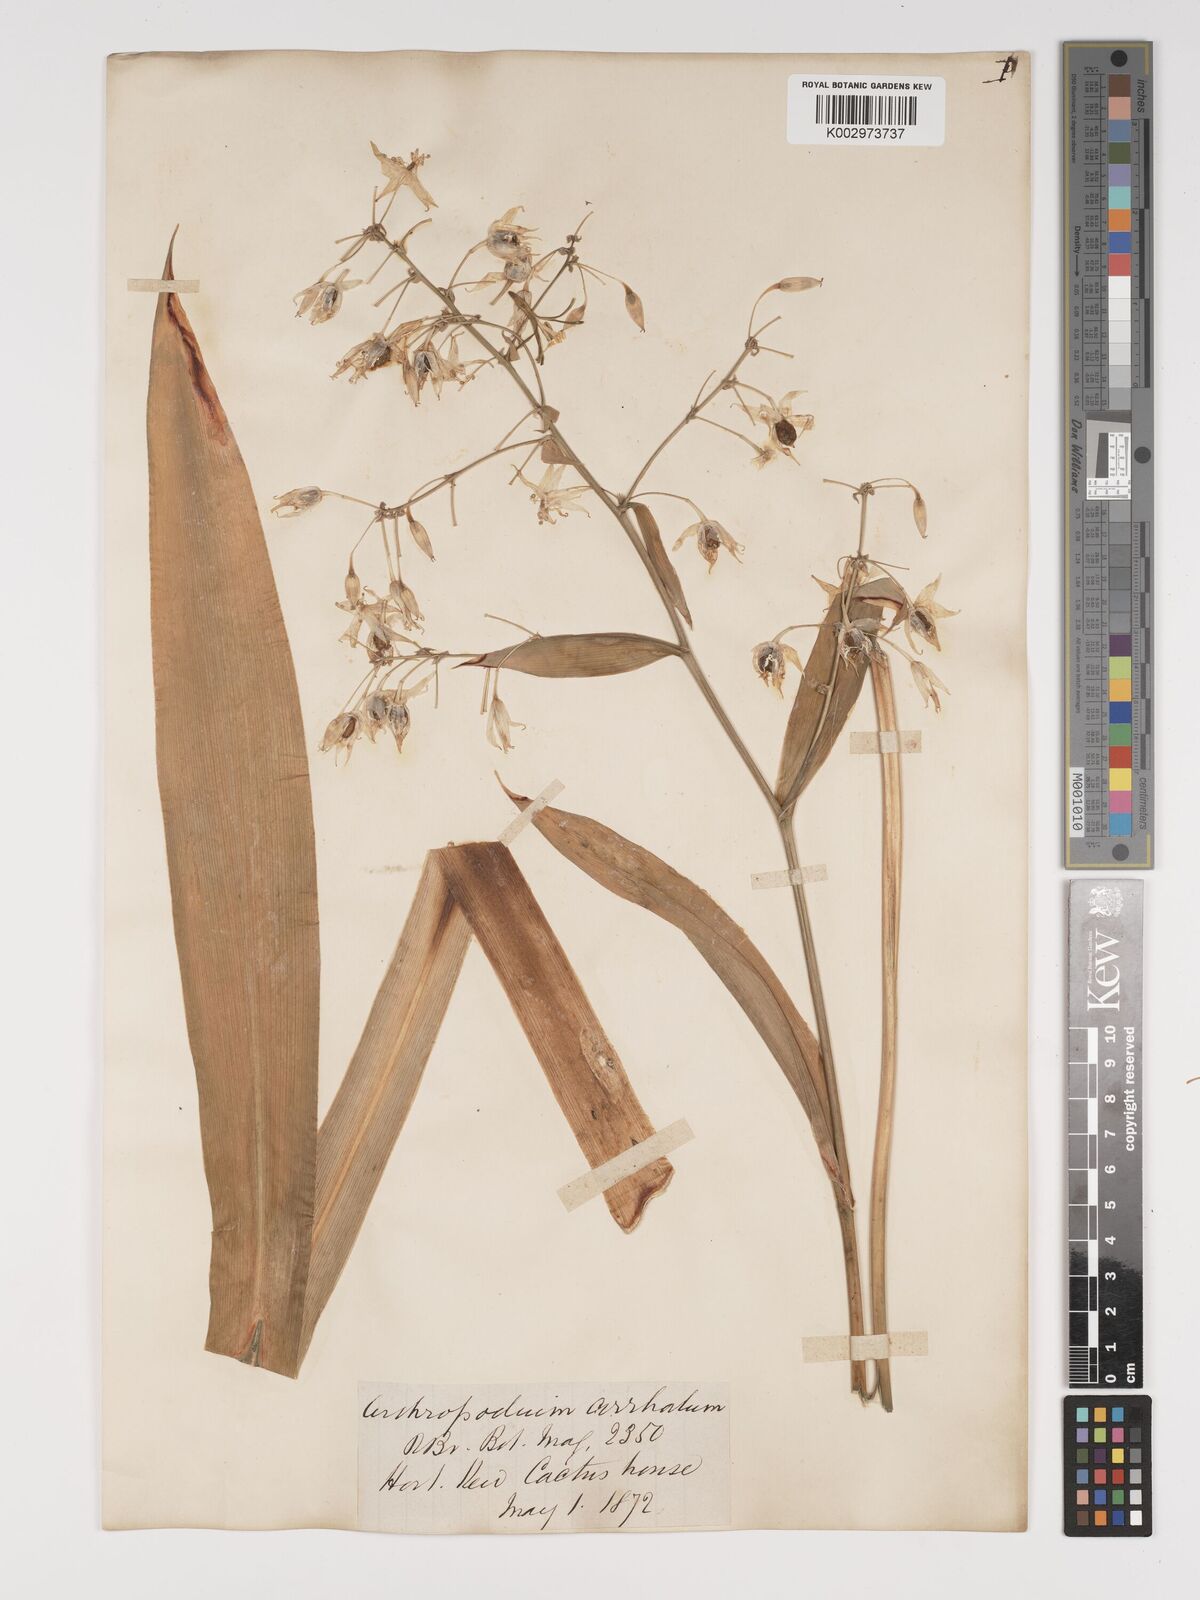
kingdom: Plantae
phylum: Tracheophyta
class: Liliopsida
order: Asparagales
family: Asparagaceae
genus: Arthropodium
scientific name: Arthropodium cirratum
